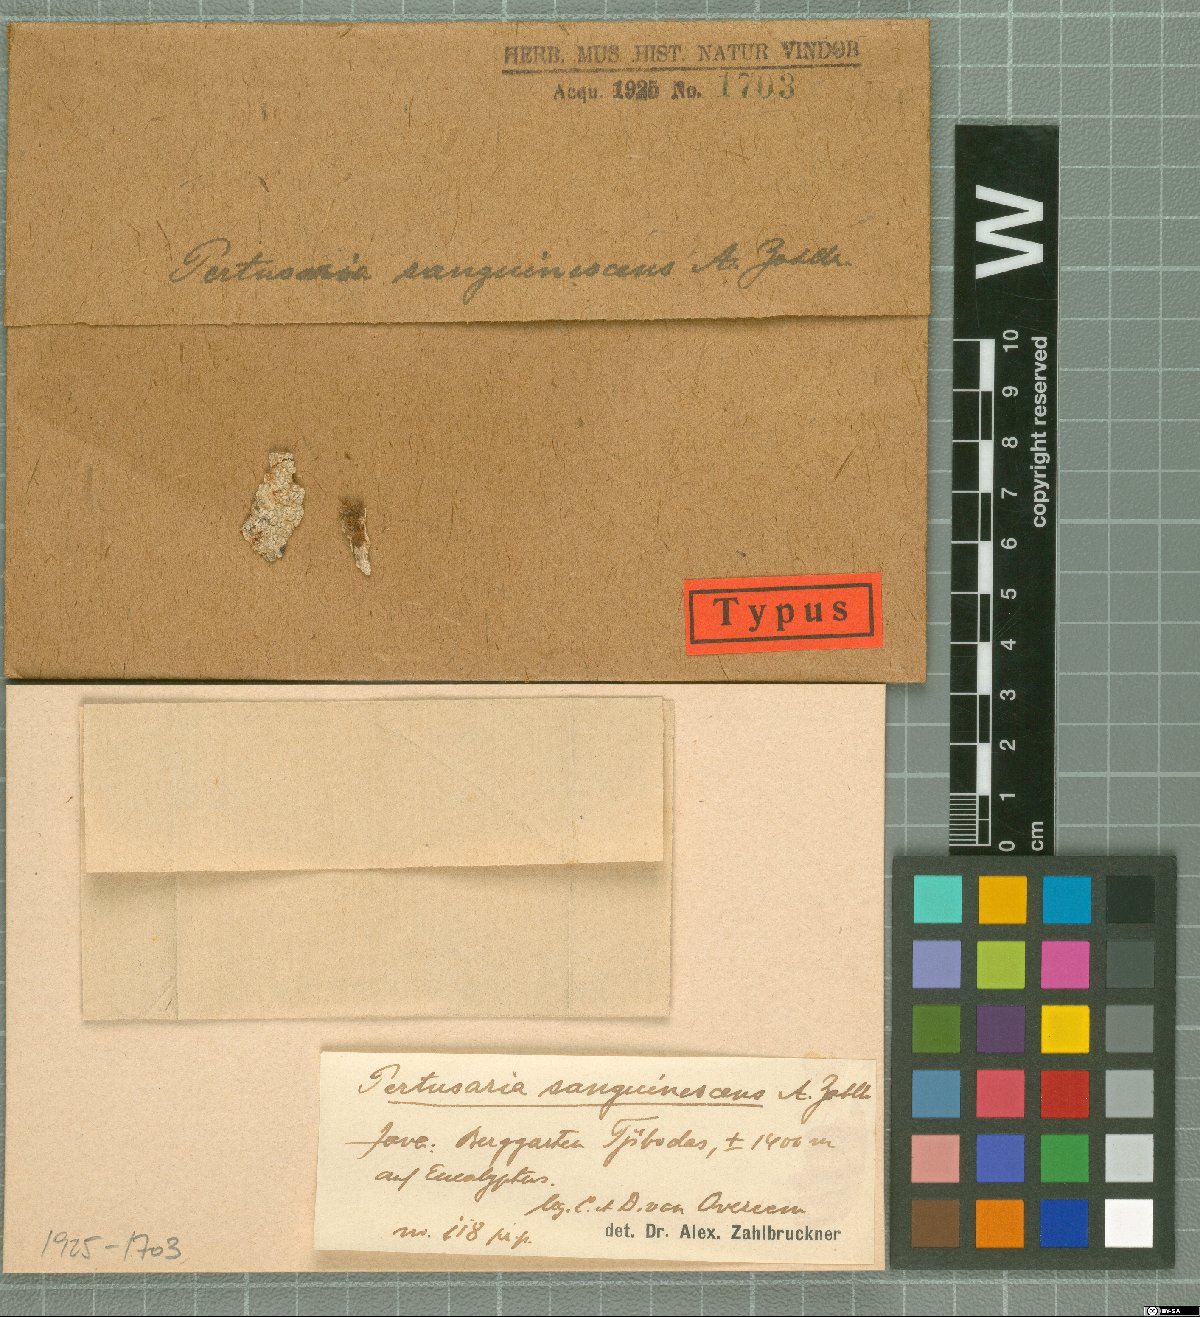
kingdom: Fungi
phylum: Ascomycota
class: Lecanoromycetes
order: Pertusariales
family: Pertusariaceae
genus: Pertusaria
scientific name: Pertusaria
